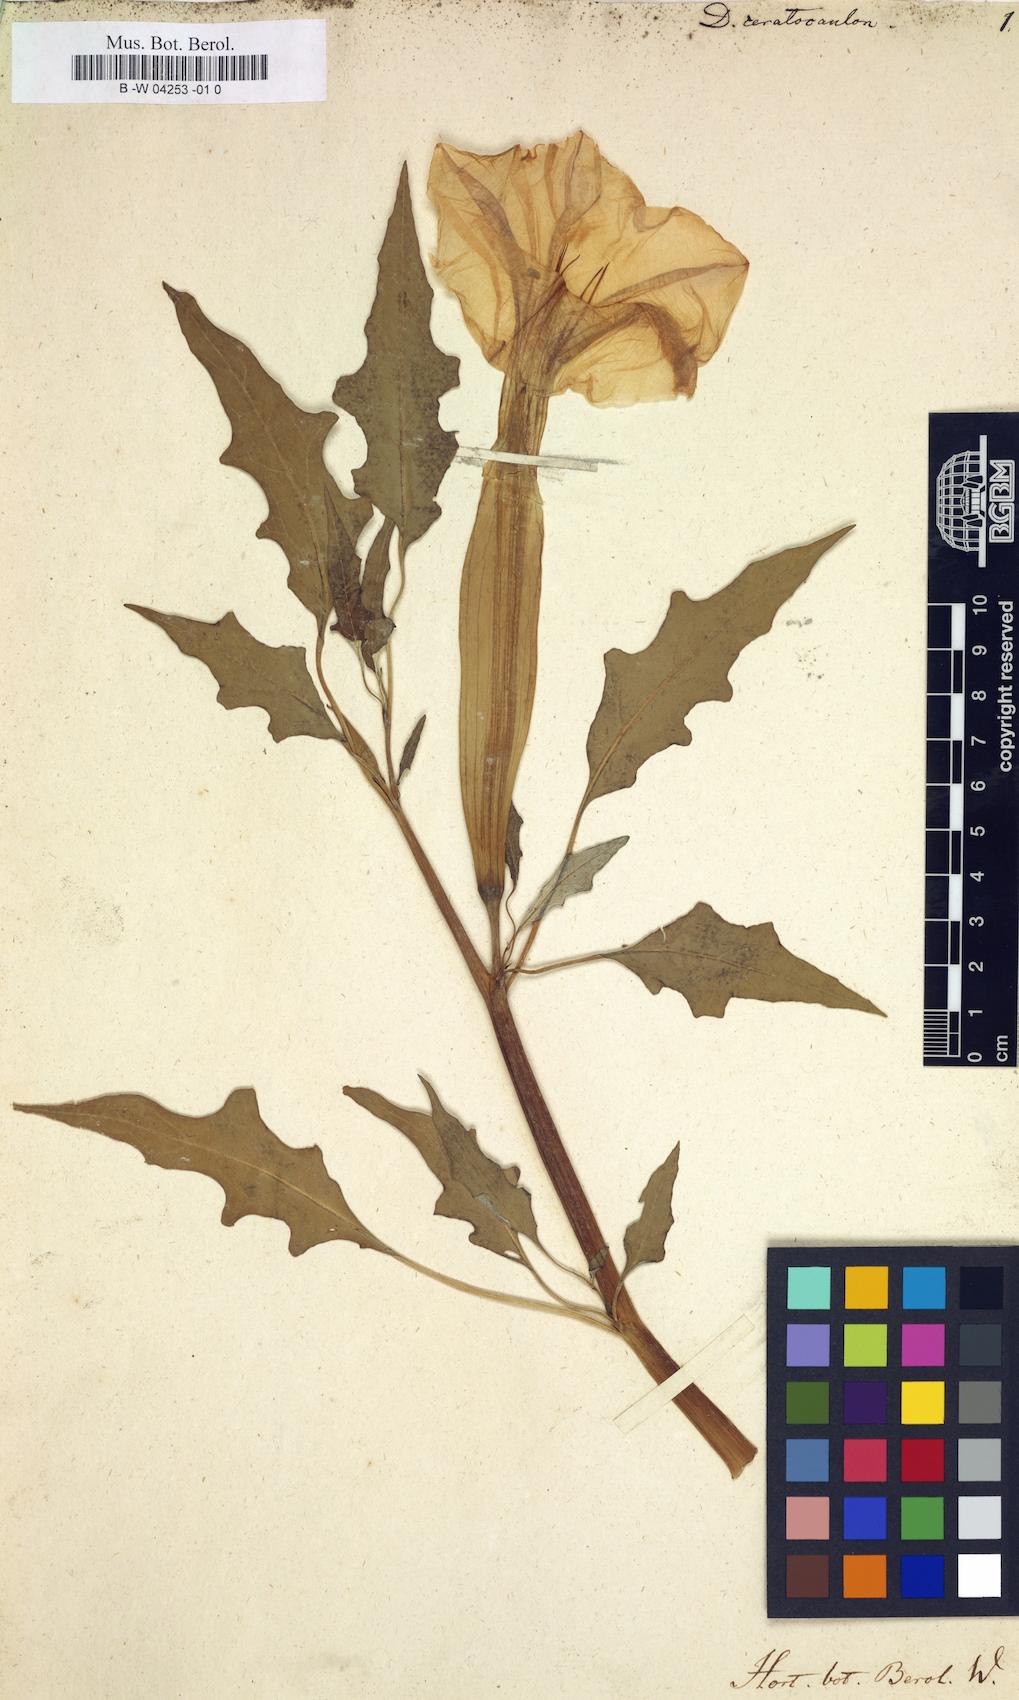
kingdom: Plantae
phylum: Tracheophyta
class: Magnoliopsida
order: Solanales
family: Solanaceae
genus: Datura
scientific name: Datura ceratocaula
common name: Latin thorn-apple
